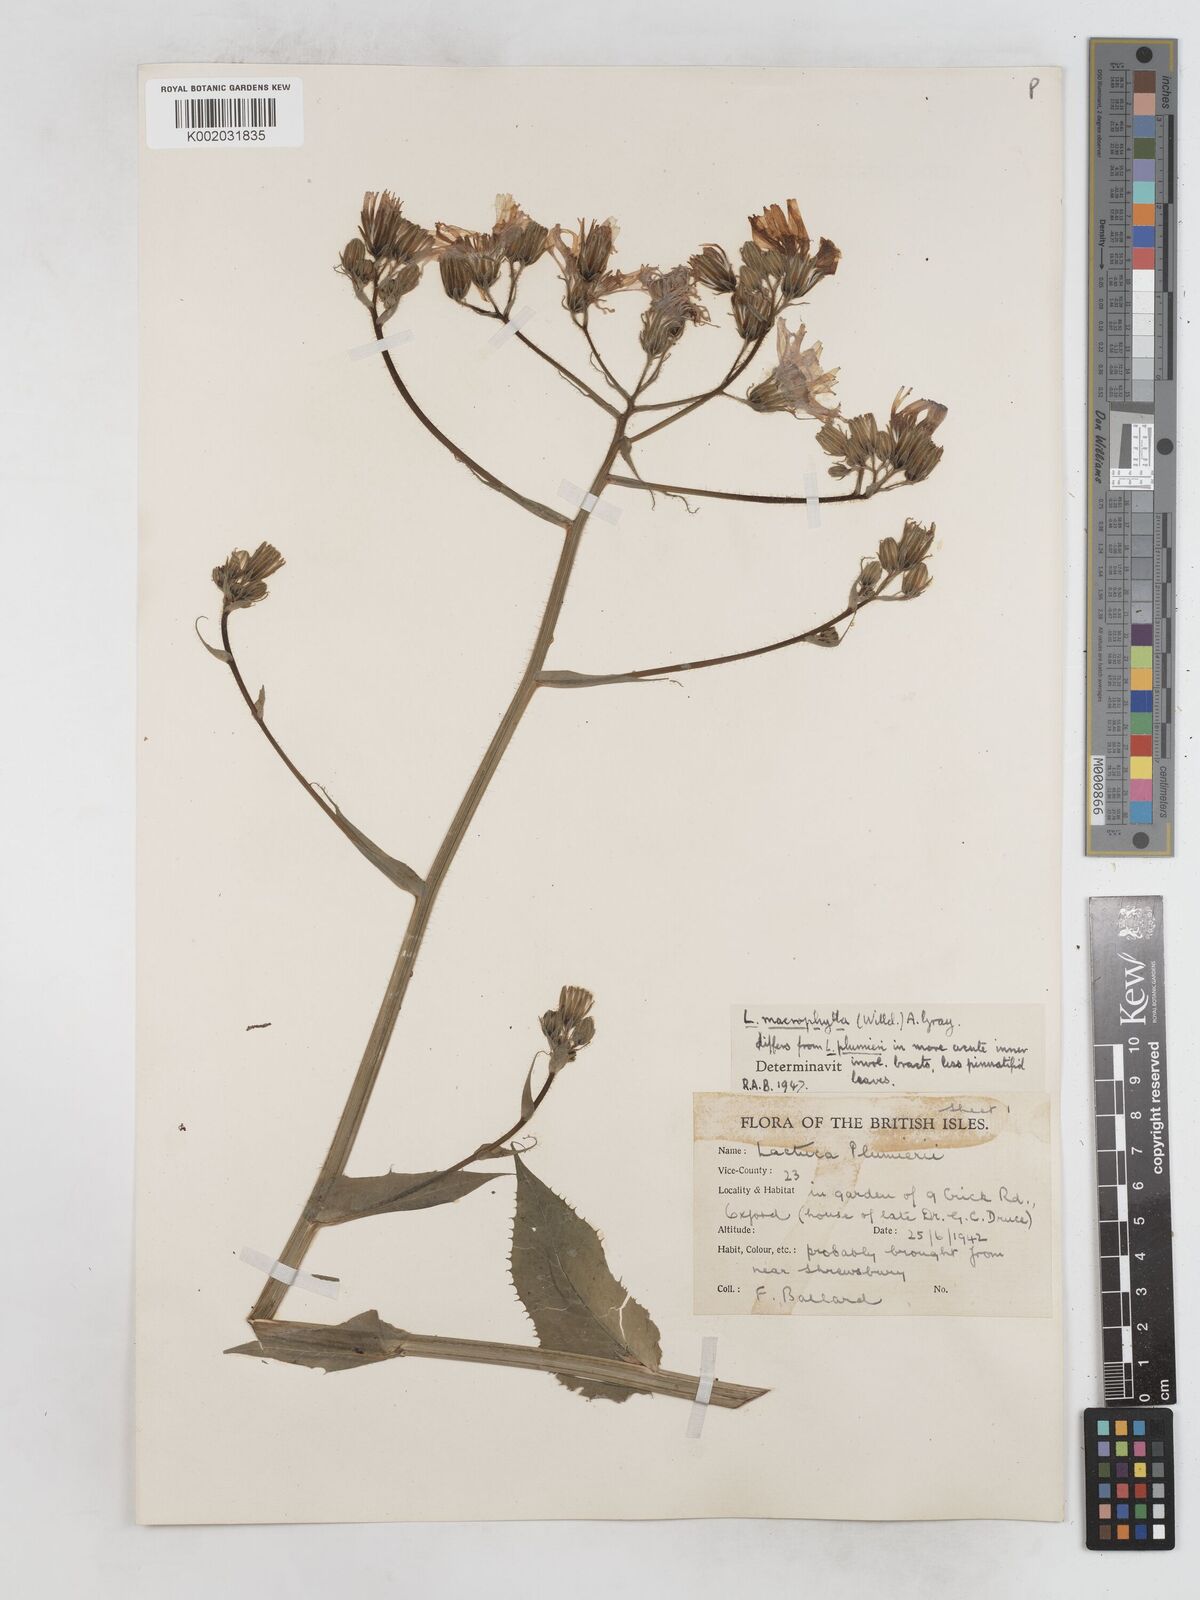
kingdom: Plantae
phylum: Tracheophyta
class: Magnoliopsida
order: Asterales
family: Asteraceae
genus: Lactuca
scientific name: Lactuca macrophylla
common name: Common blue-sow-thistle
